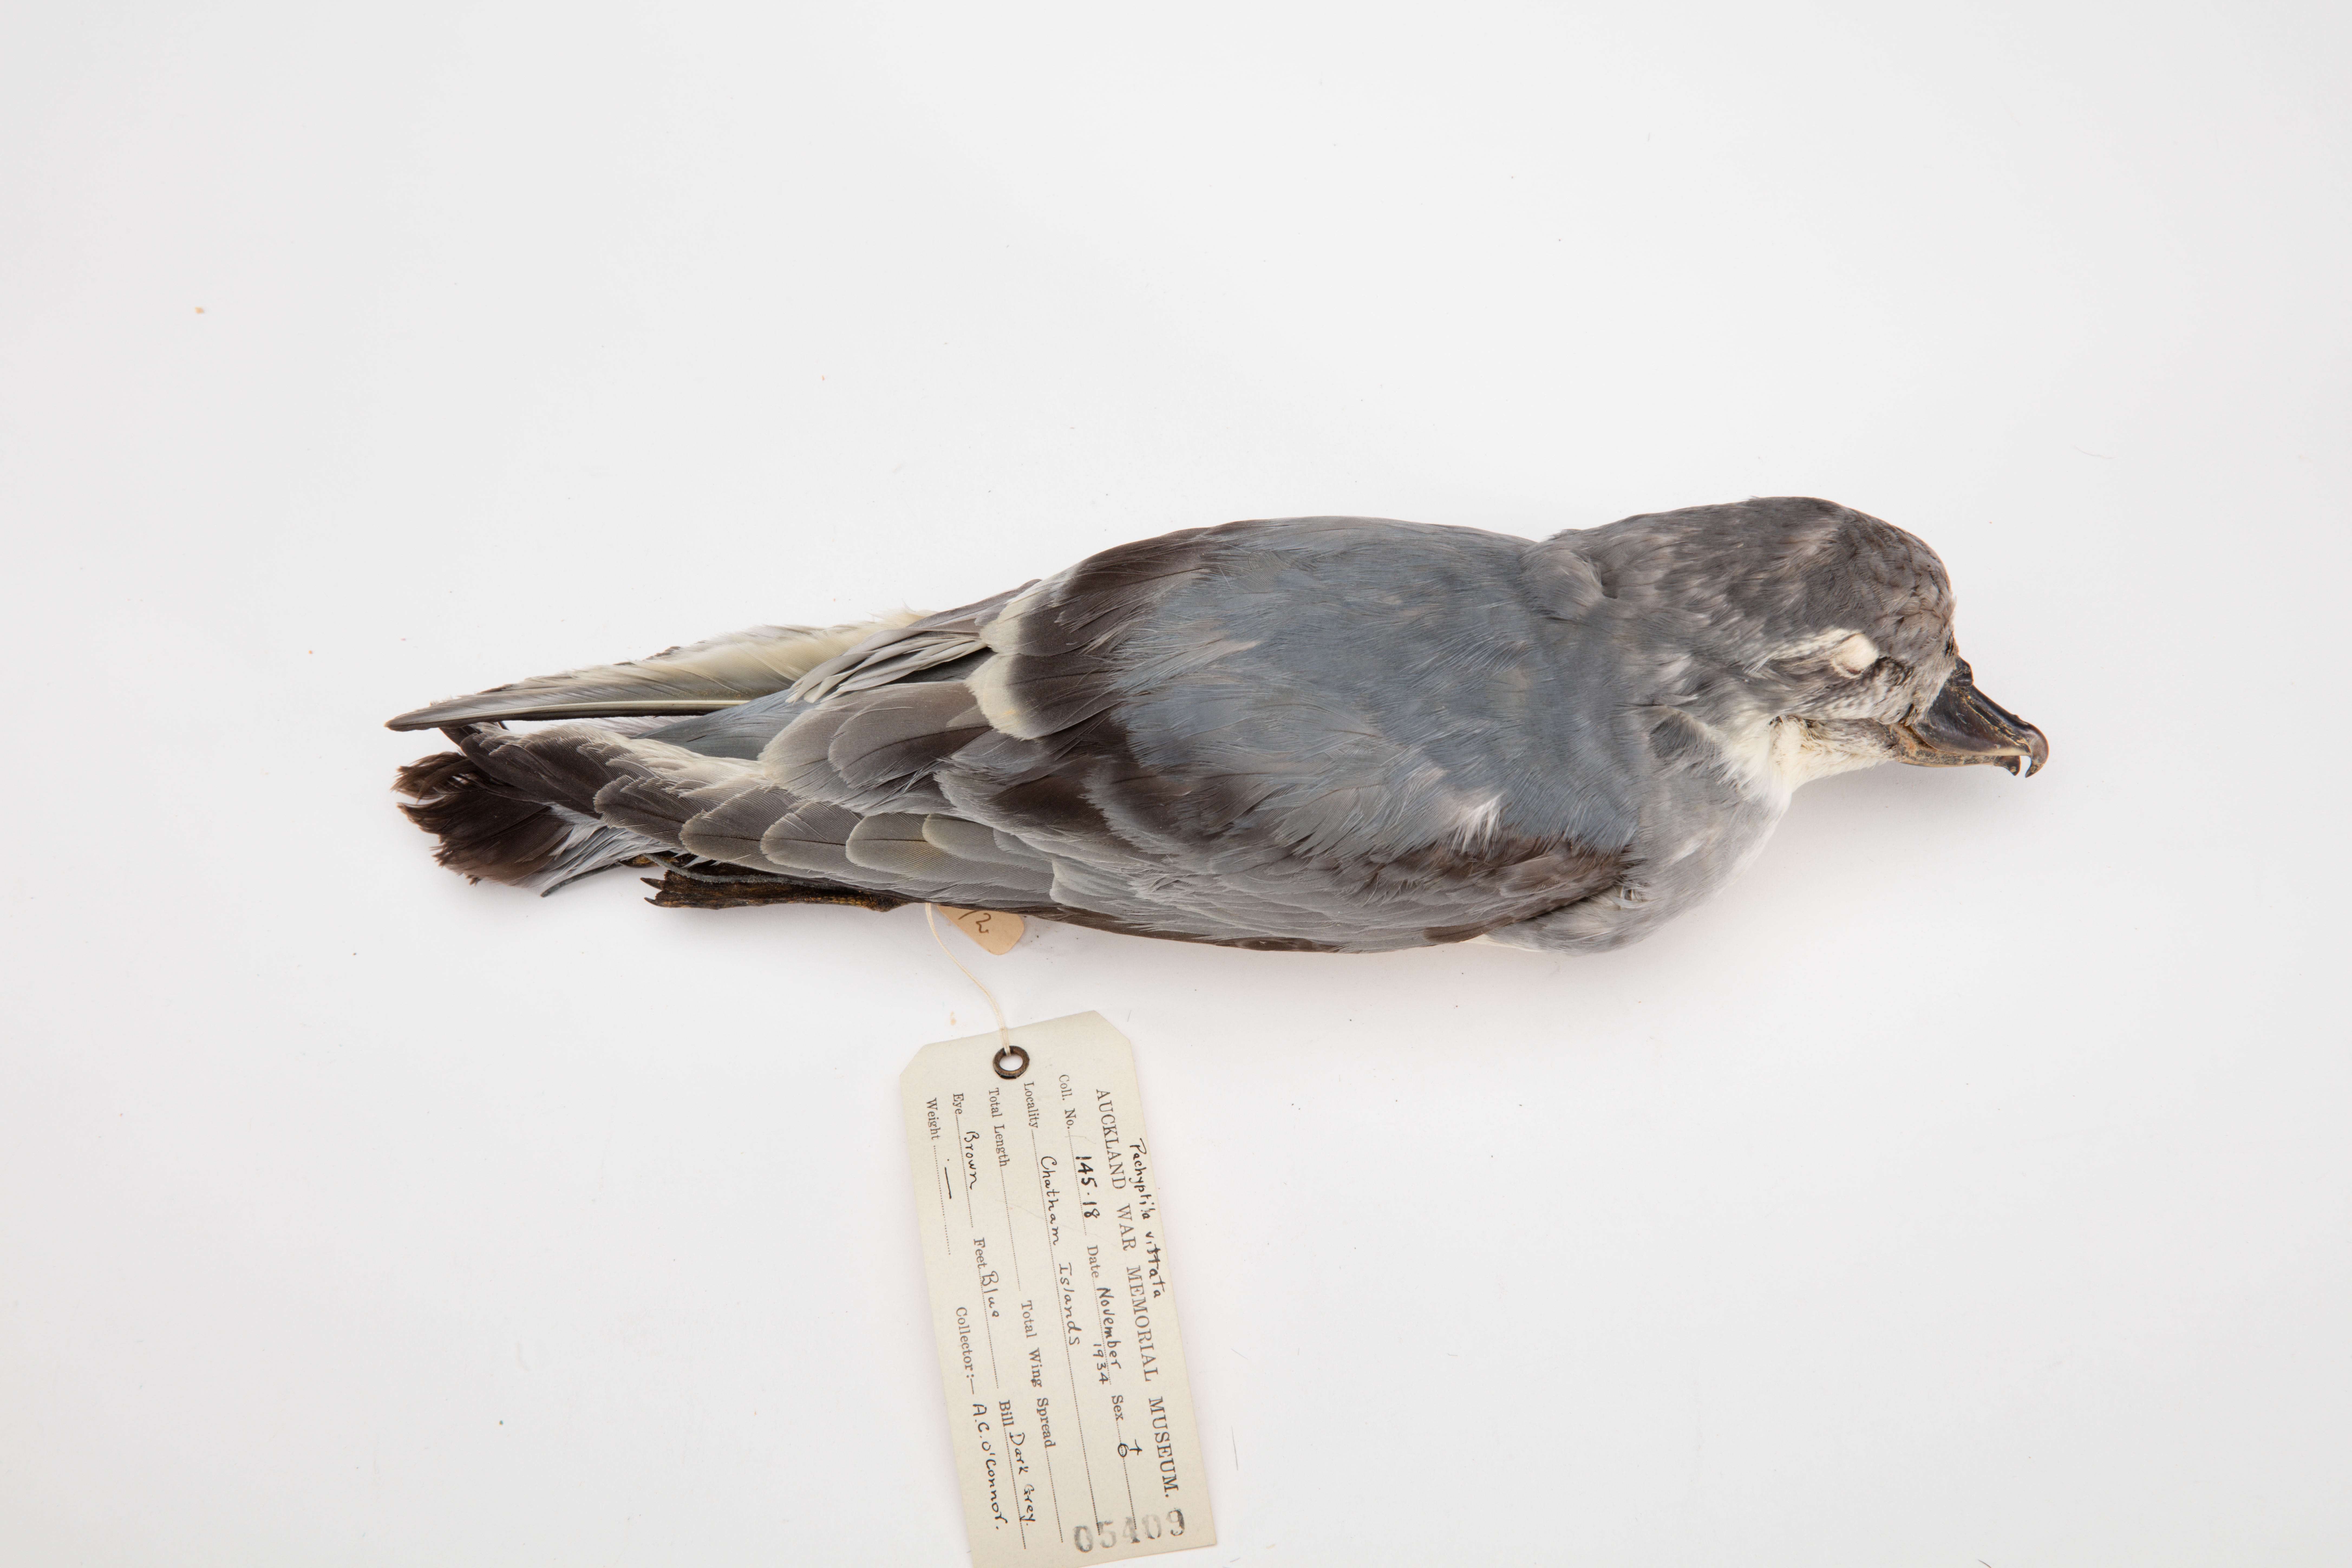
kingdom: Animalia
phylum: Chordata
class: Aves
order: Procellariiformes
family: Procellariidae
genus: Pachyptila
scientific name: Pachyptila vittata
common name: Broad-billed prion
